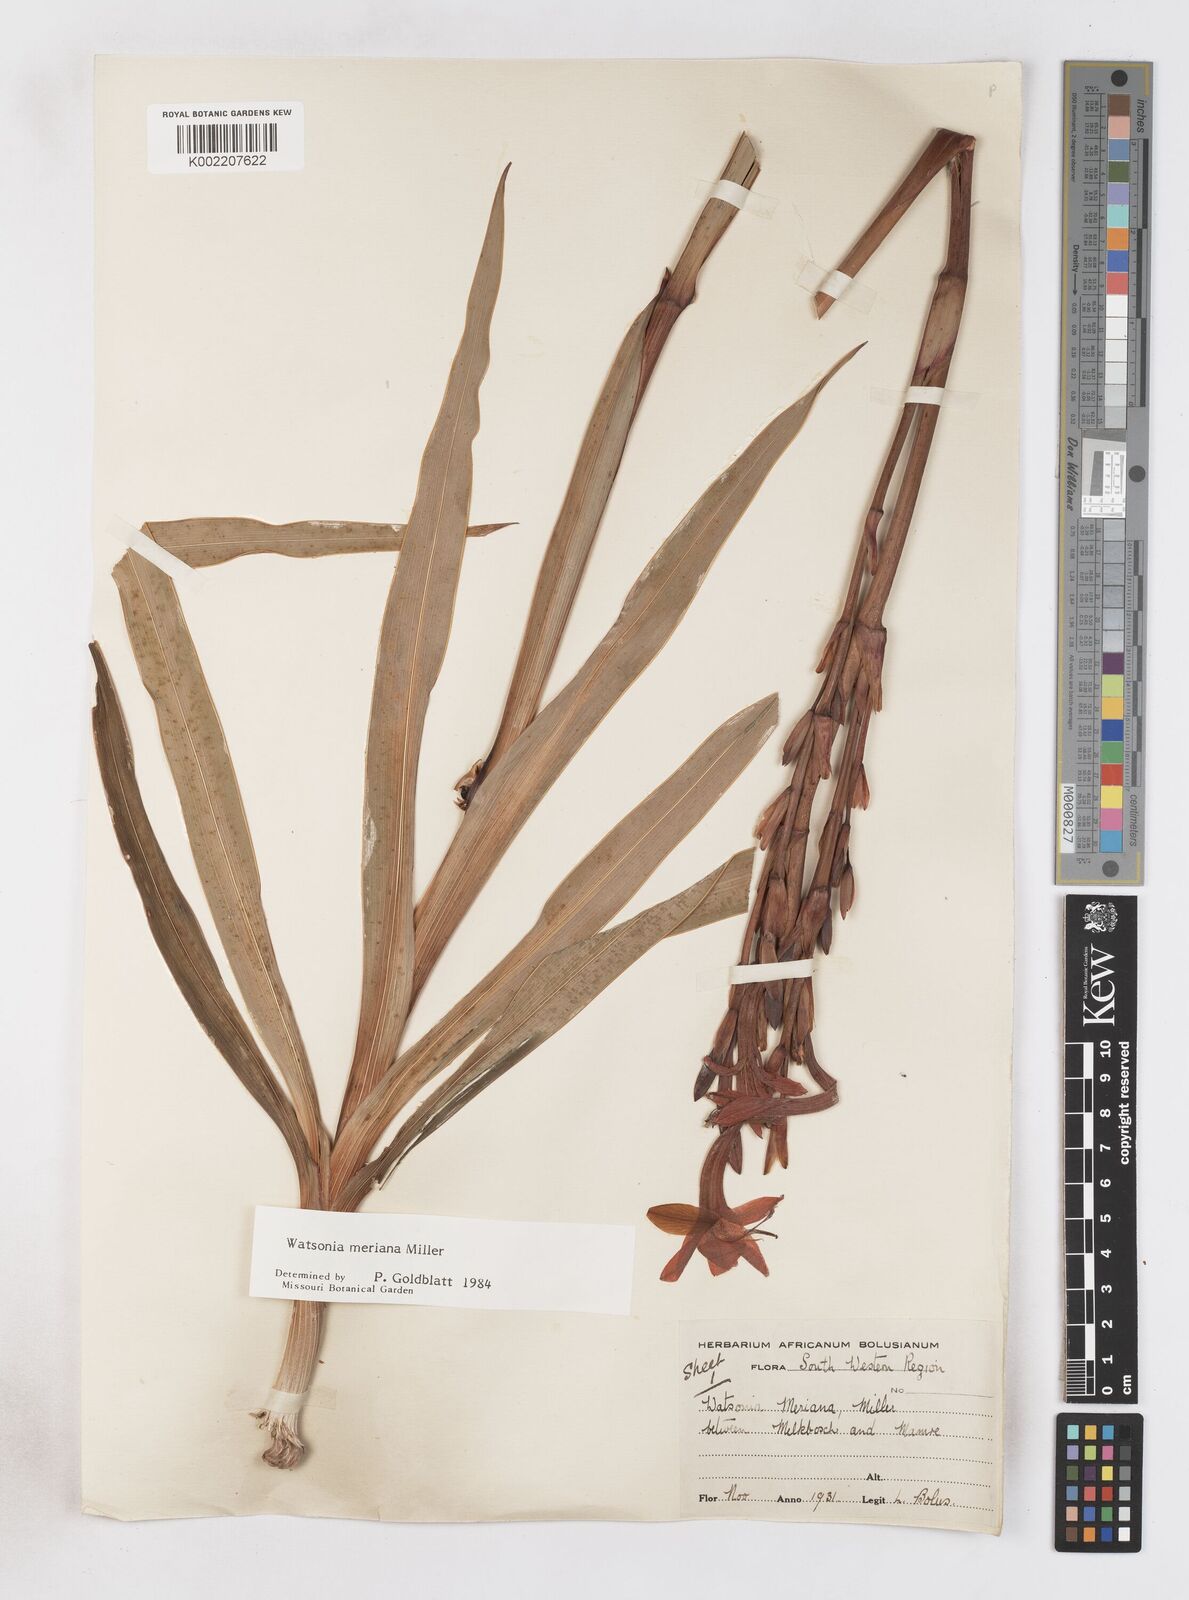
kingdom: Plantae
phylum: Tracheophyta
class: Liliopsida
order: Asparagales
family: Iridaceae
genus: Watsonia
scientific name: Watsonia meriana
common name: Bulbil bugle-lily
